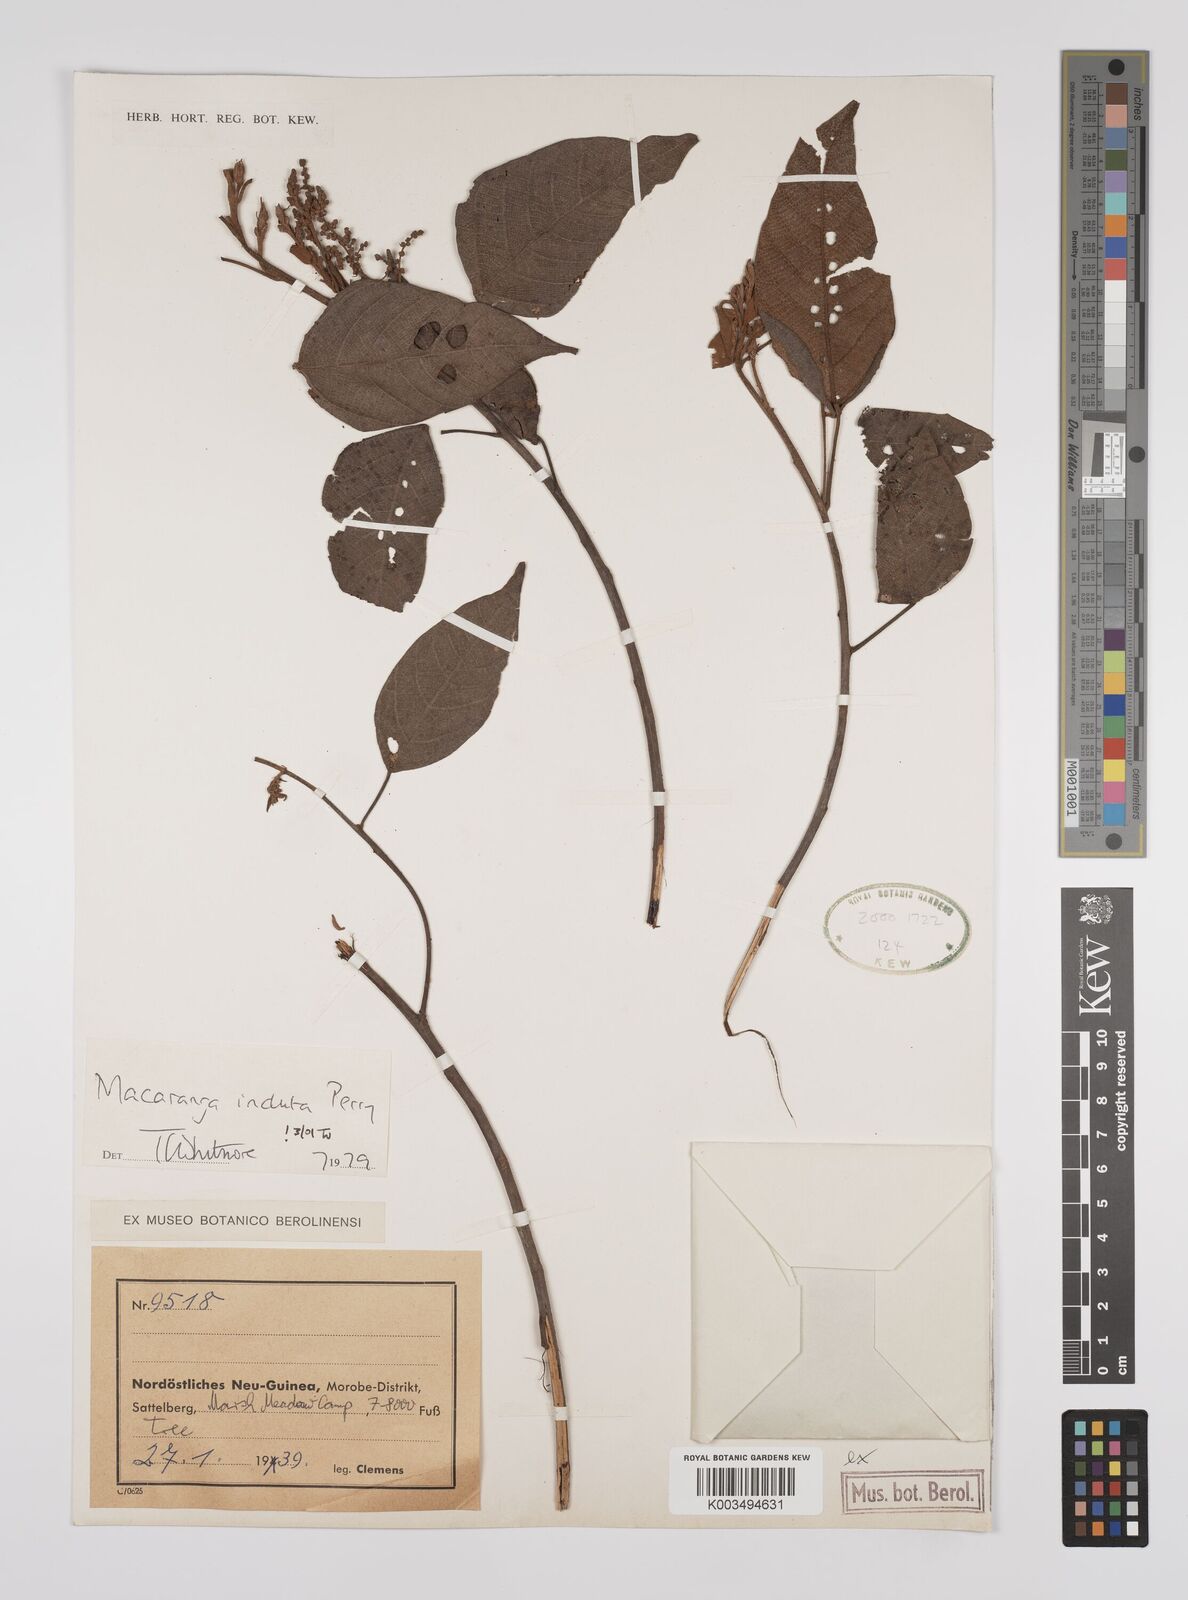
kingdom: Plantae
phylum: Tracheophyta
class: Magnoliopsida
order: Malpighiales
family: Euphorbiaceae
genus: Macaranga
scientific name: Macaranga induta
